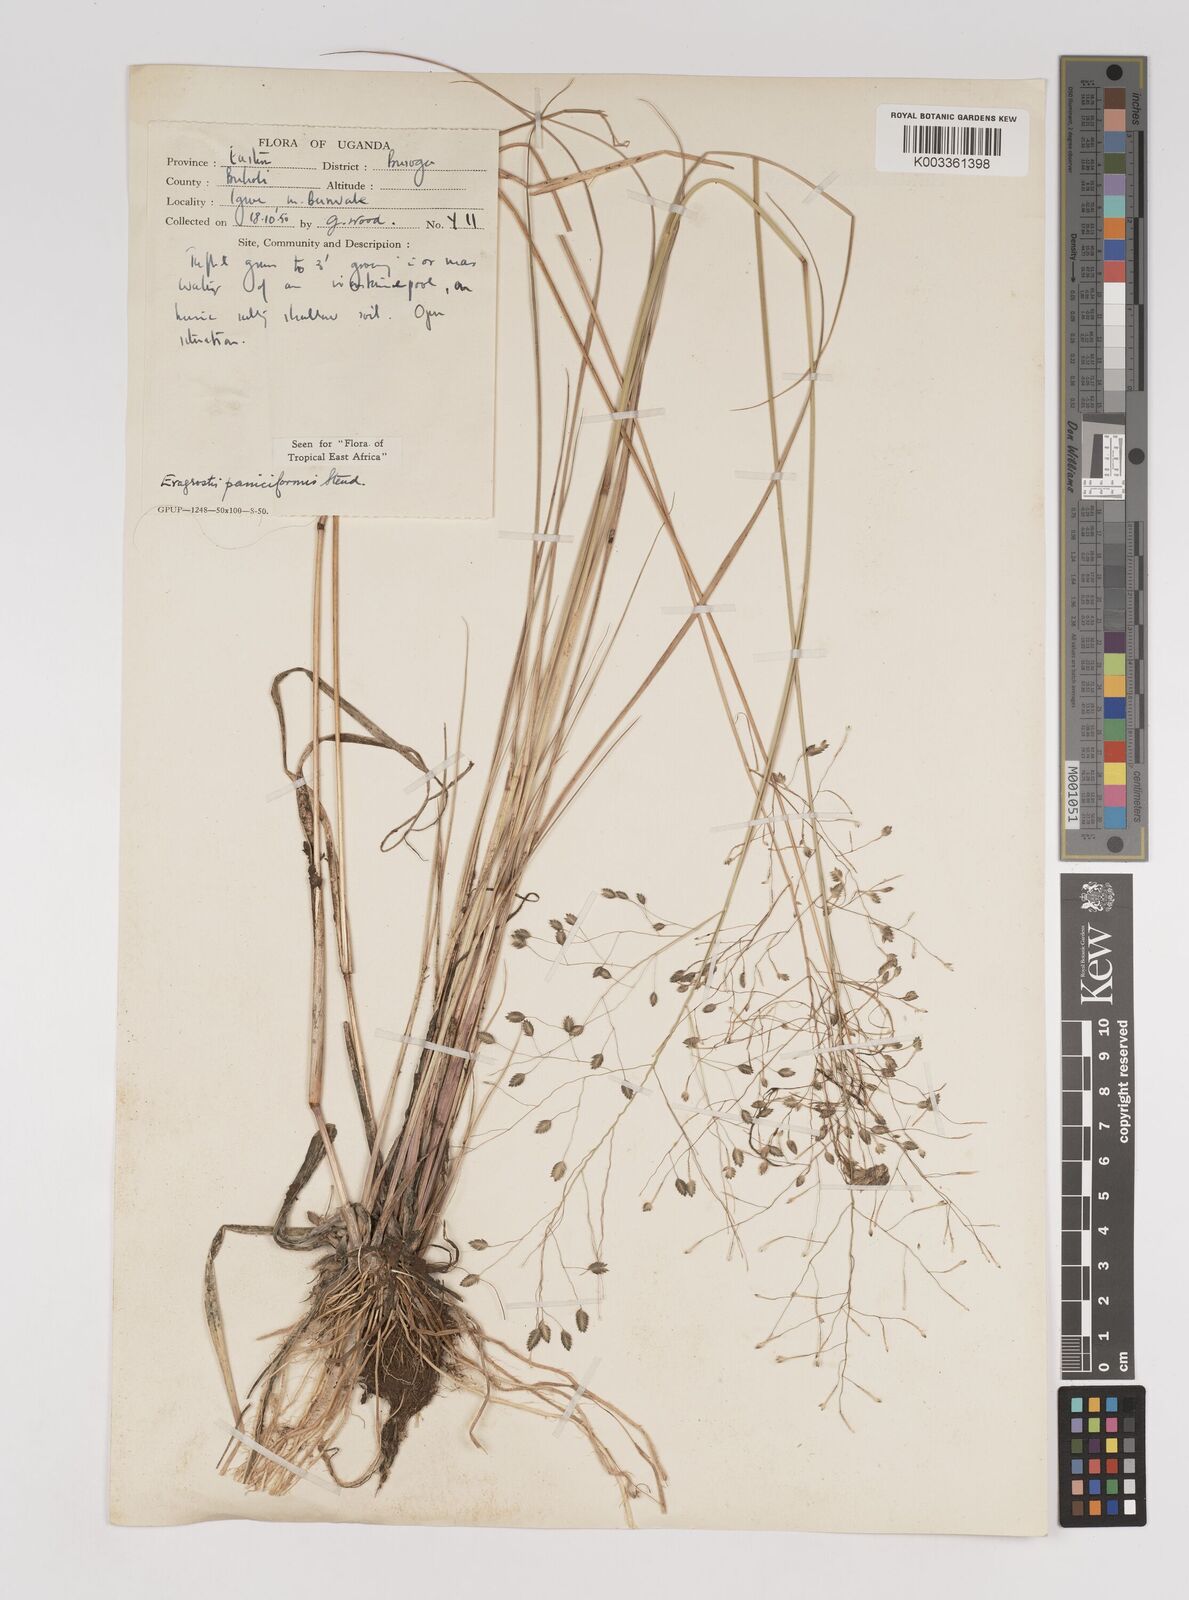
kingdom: Plantae
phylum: Tracheophyta
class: Liliopsida
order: Poales
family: Poaceae
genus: Eragrostis
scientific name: Eragrostis paniciformis
